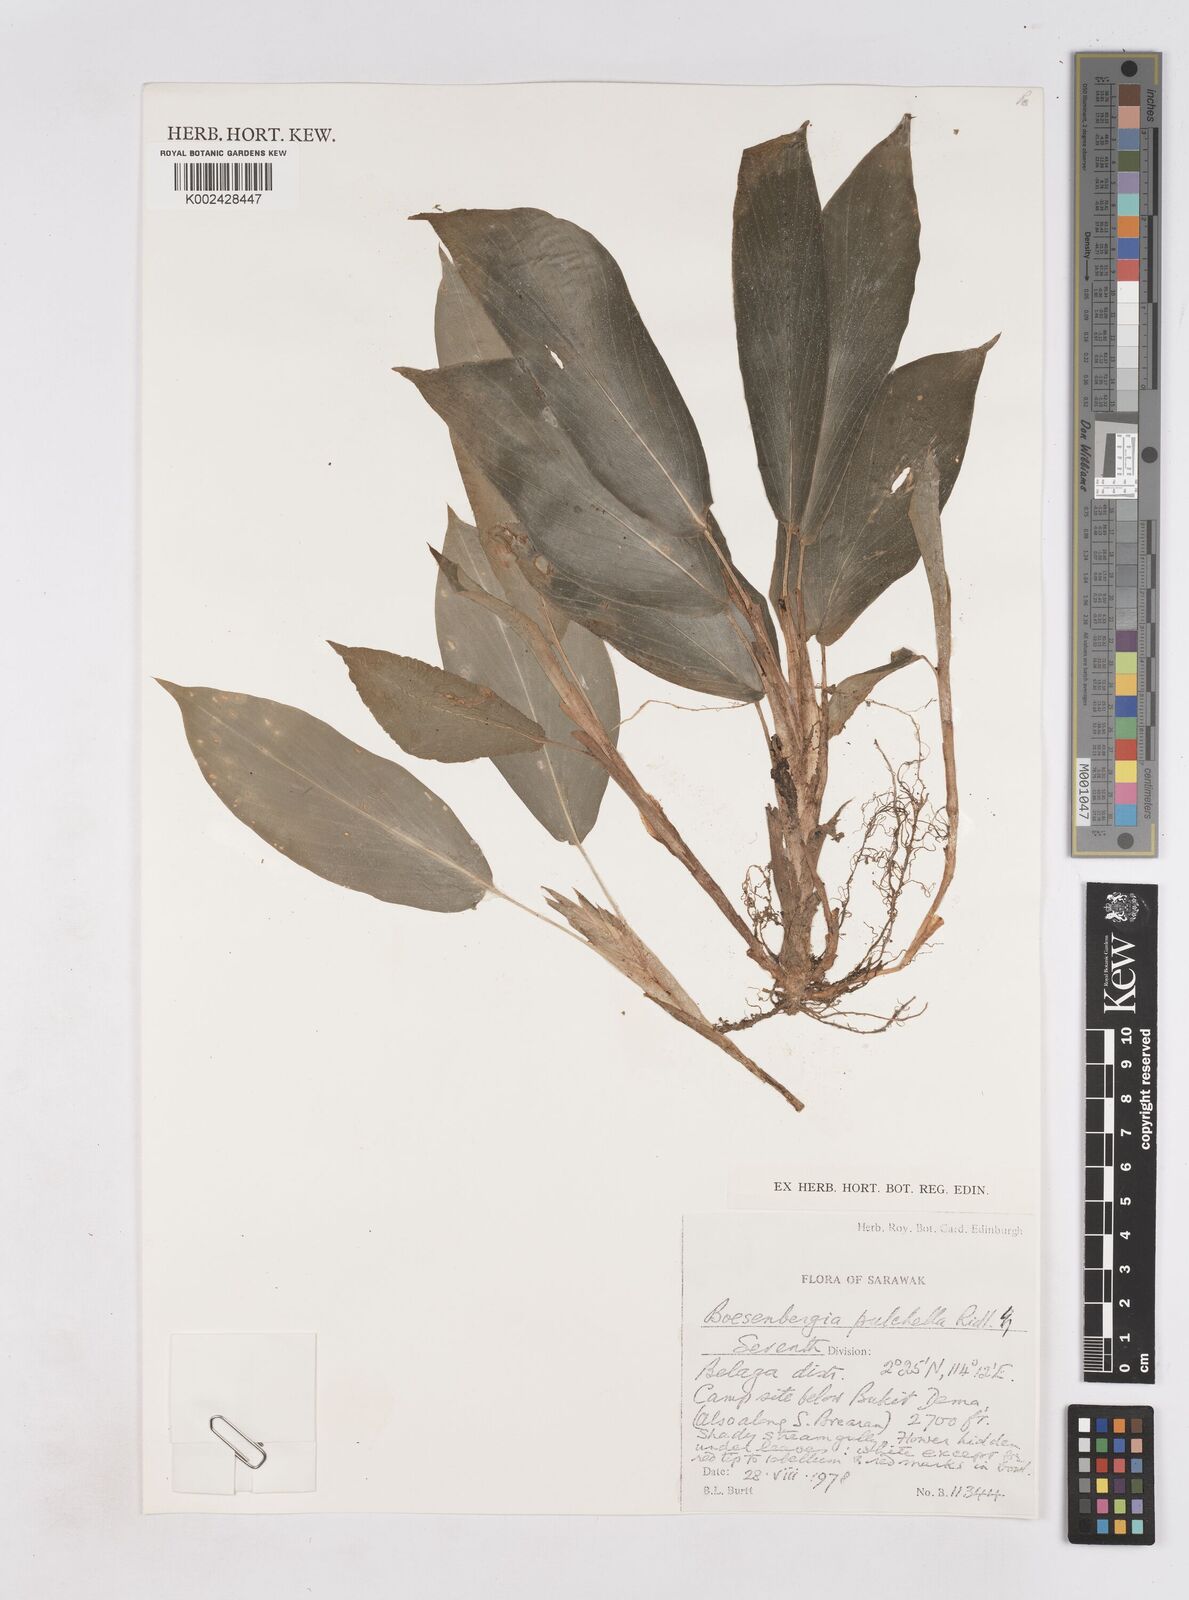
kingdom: Plantae
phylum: Tracheophyta
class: Liliopsida
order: Zingiberales
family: Zingiberaceae
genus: Boesenbergia
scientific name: Boesenbergia pulchella
